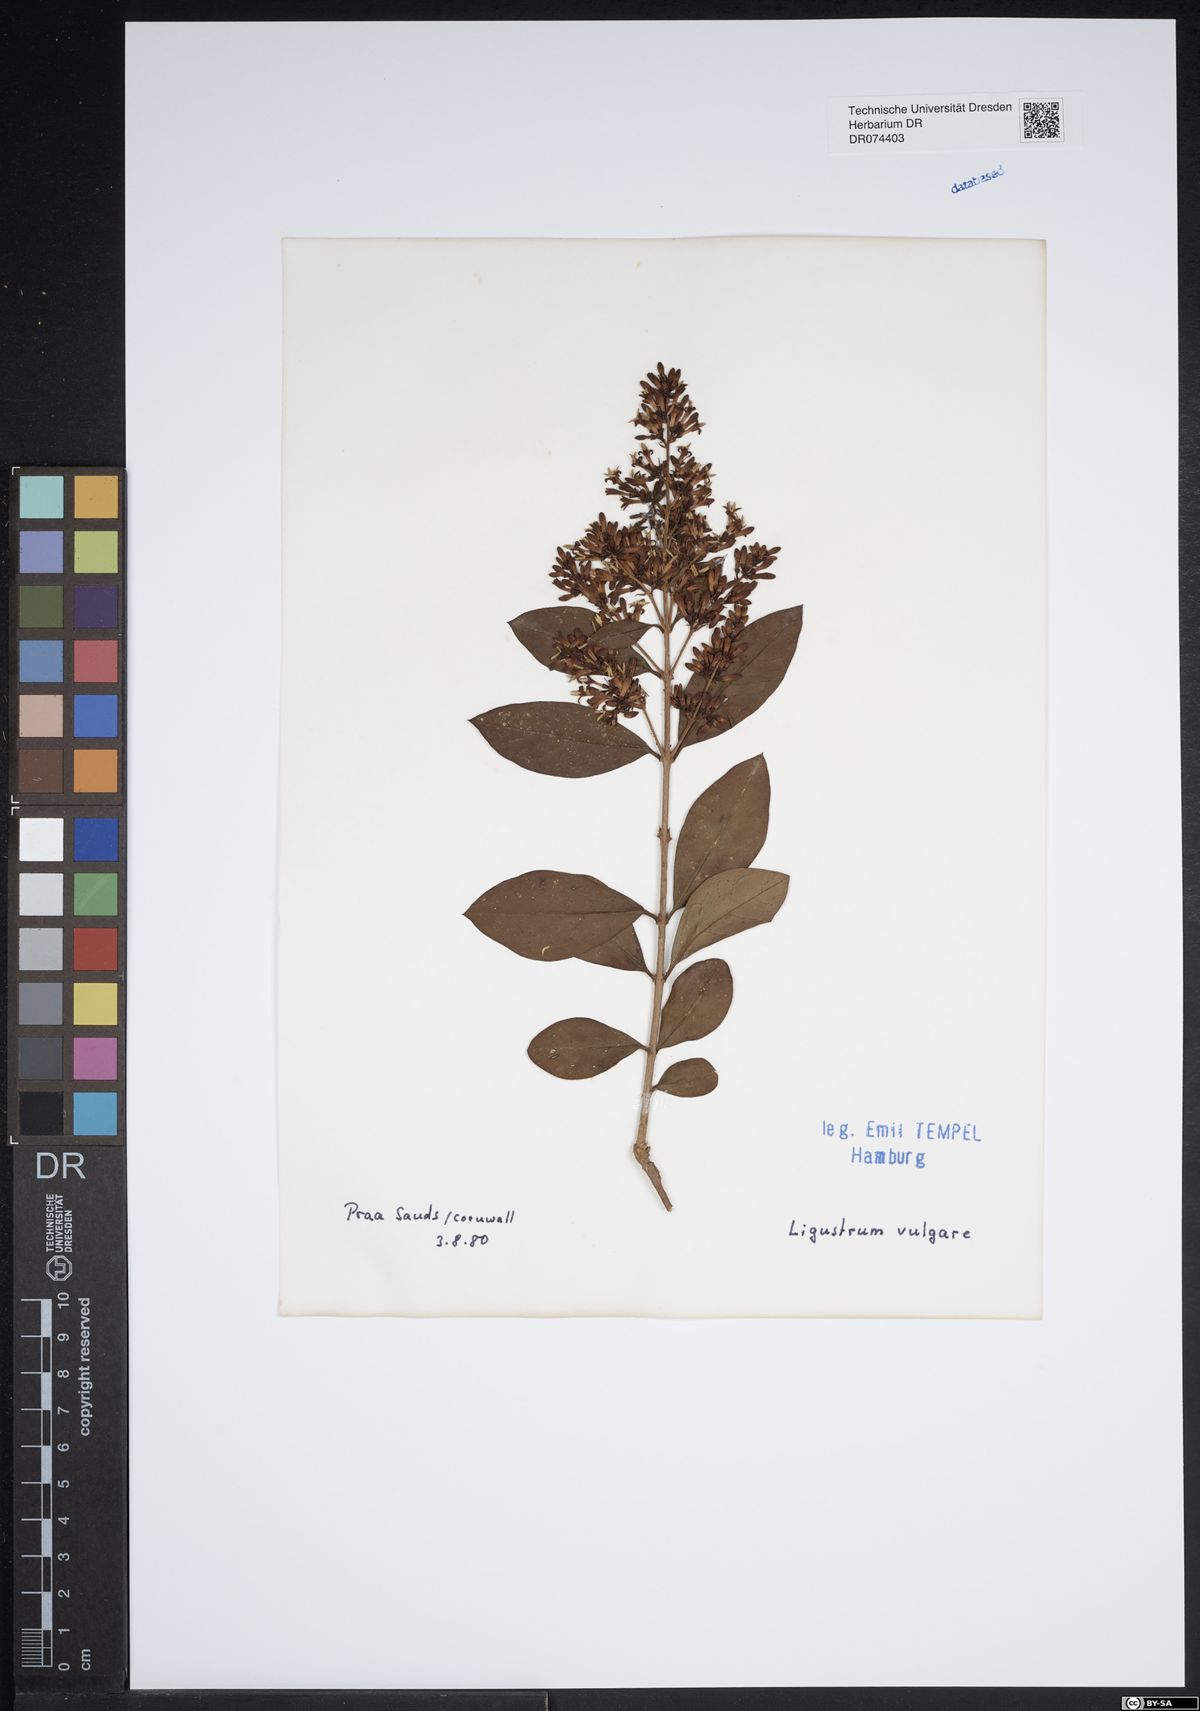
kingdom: Plantae
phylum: Tracheophyta
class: Magnoliopsida
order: Lamiales
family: Oleaceae
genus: Ligustrum
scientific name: Ligustrum vulgare
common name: Wild privet
